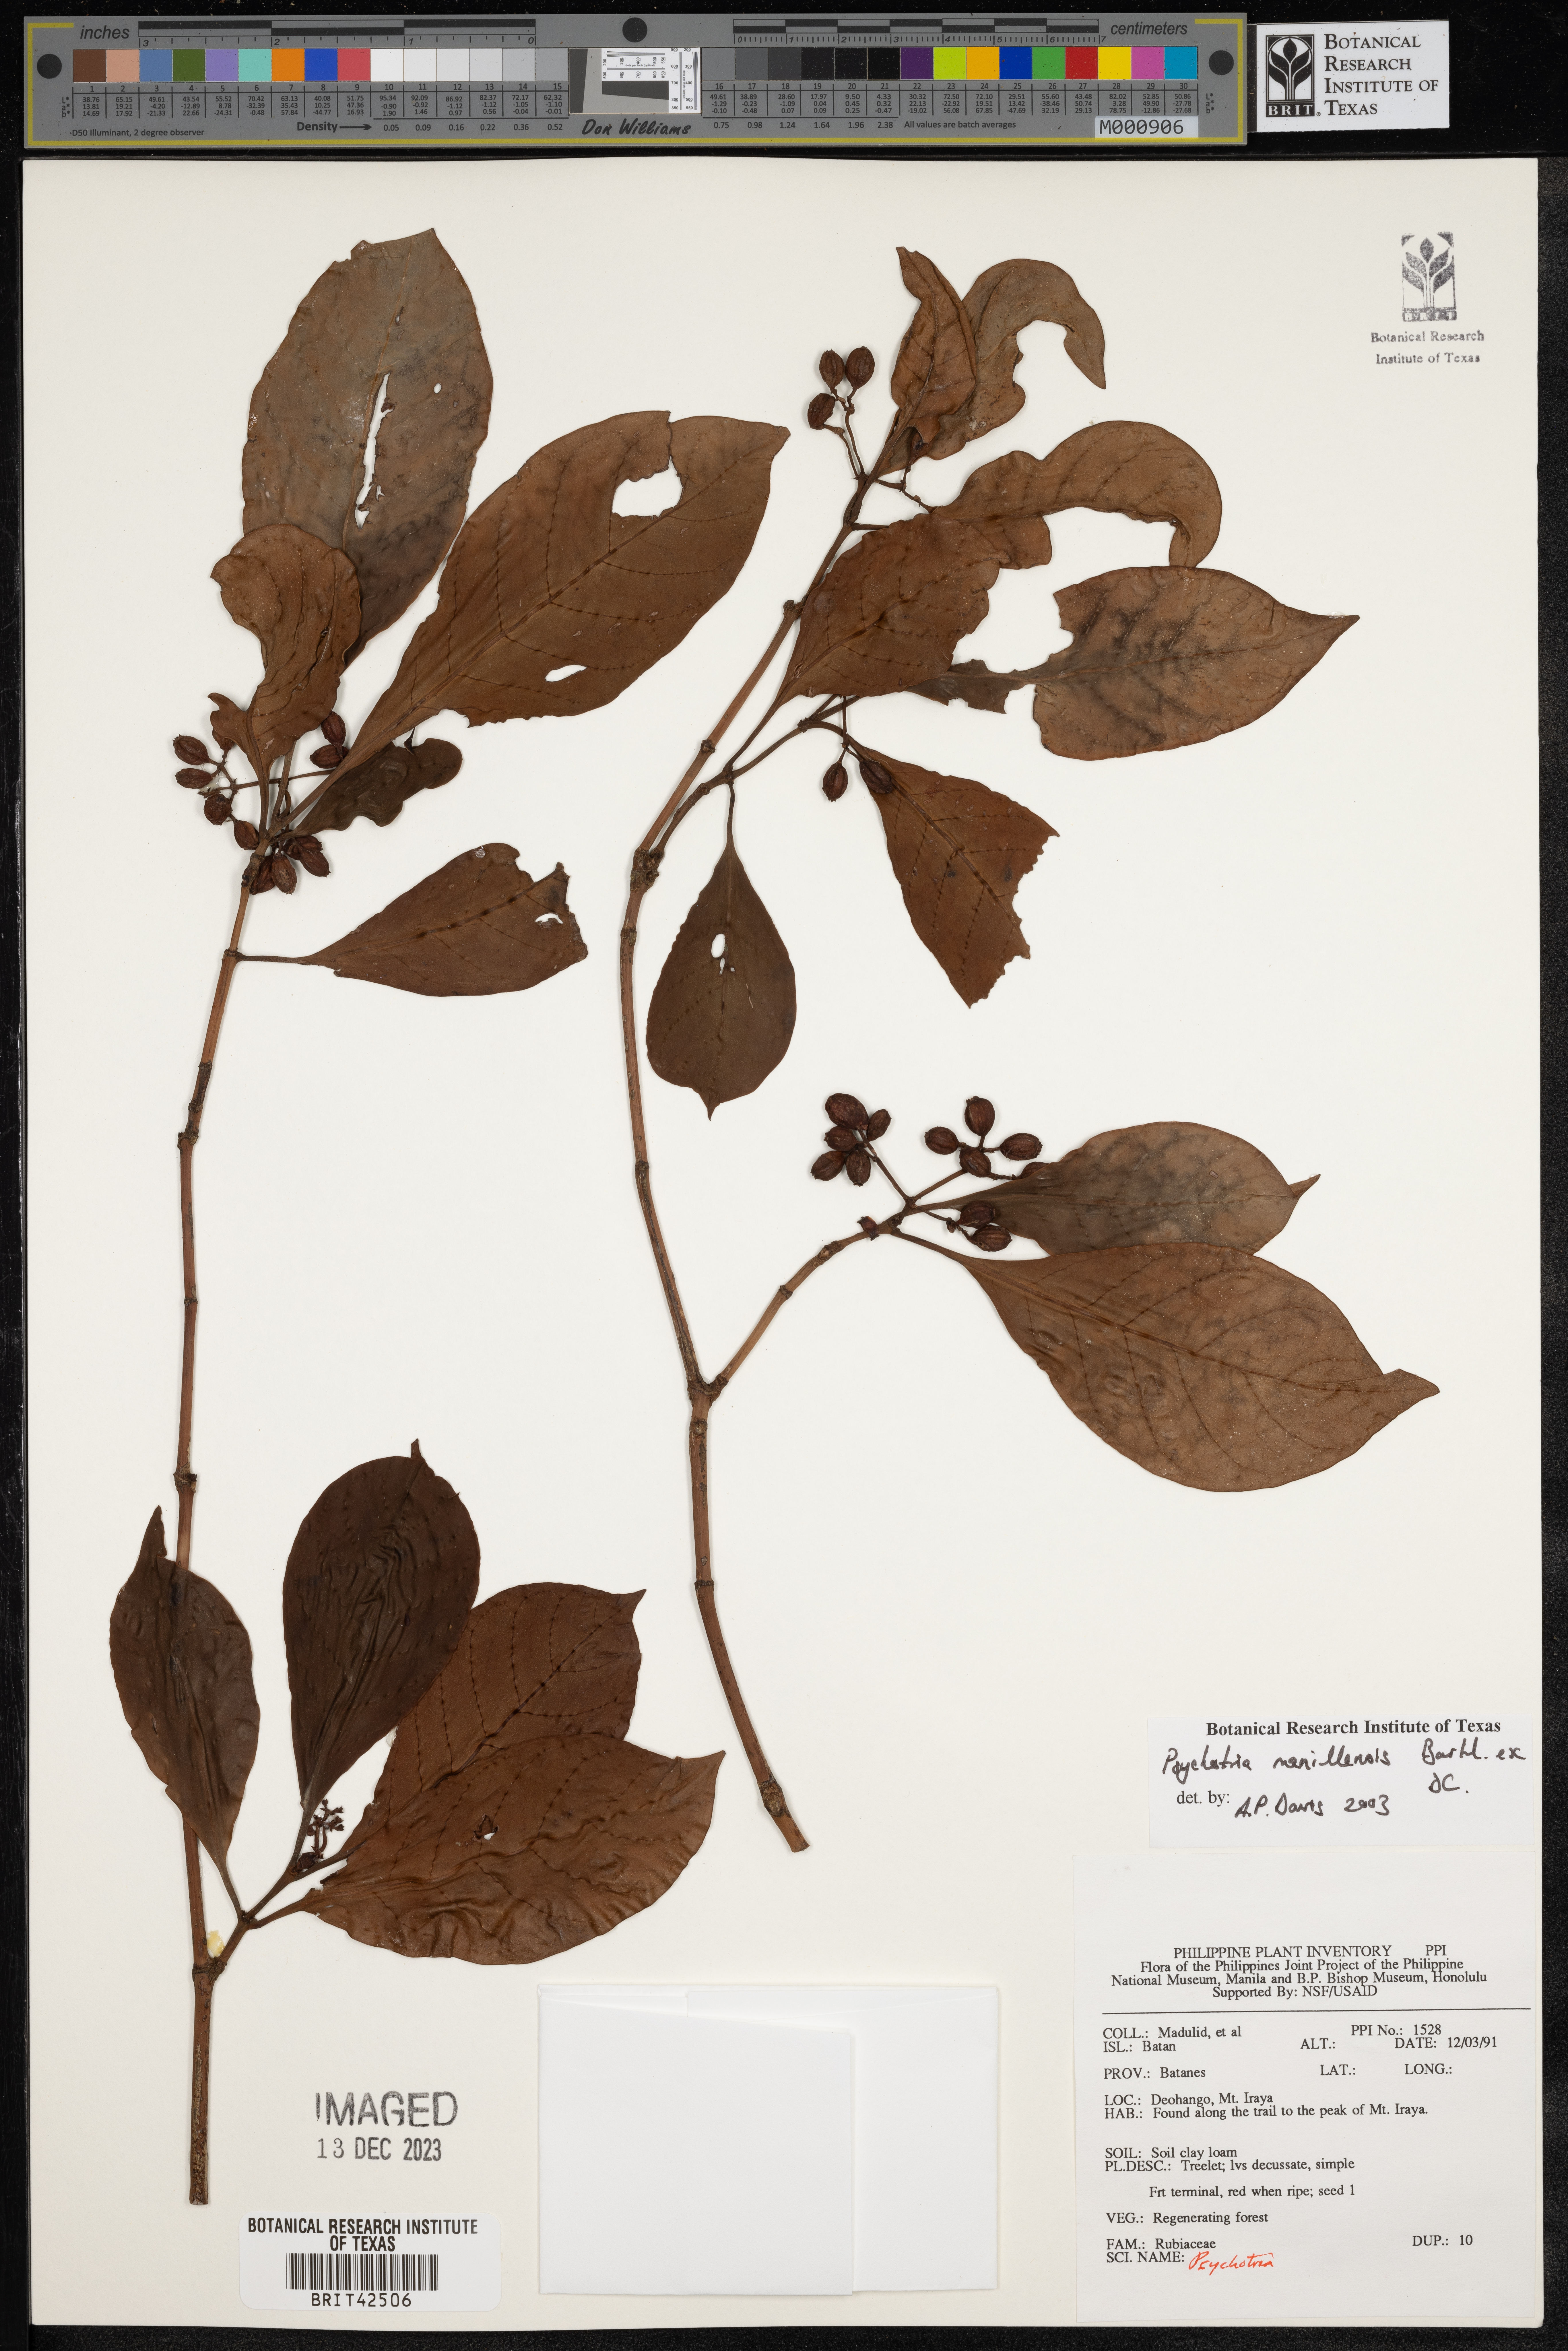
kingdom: Plantae
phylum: Tracheophyta
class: Magnoliopsida
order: Gentianales
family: Rubiaceae
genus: Psychotria
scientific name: Psychotria manillensis
